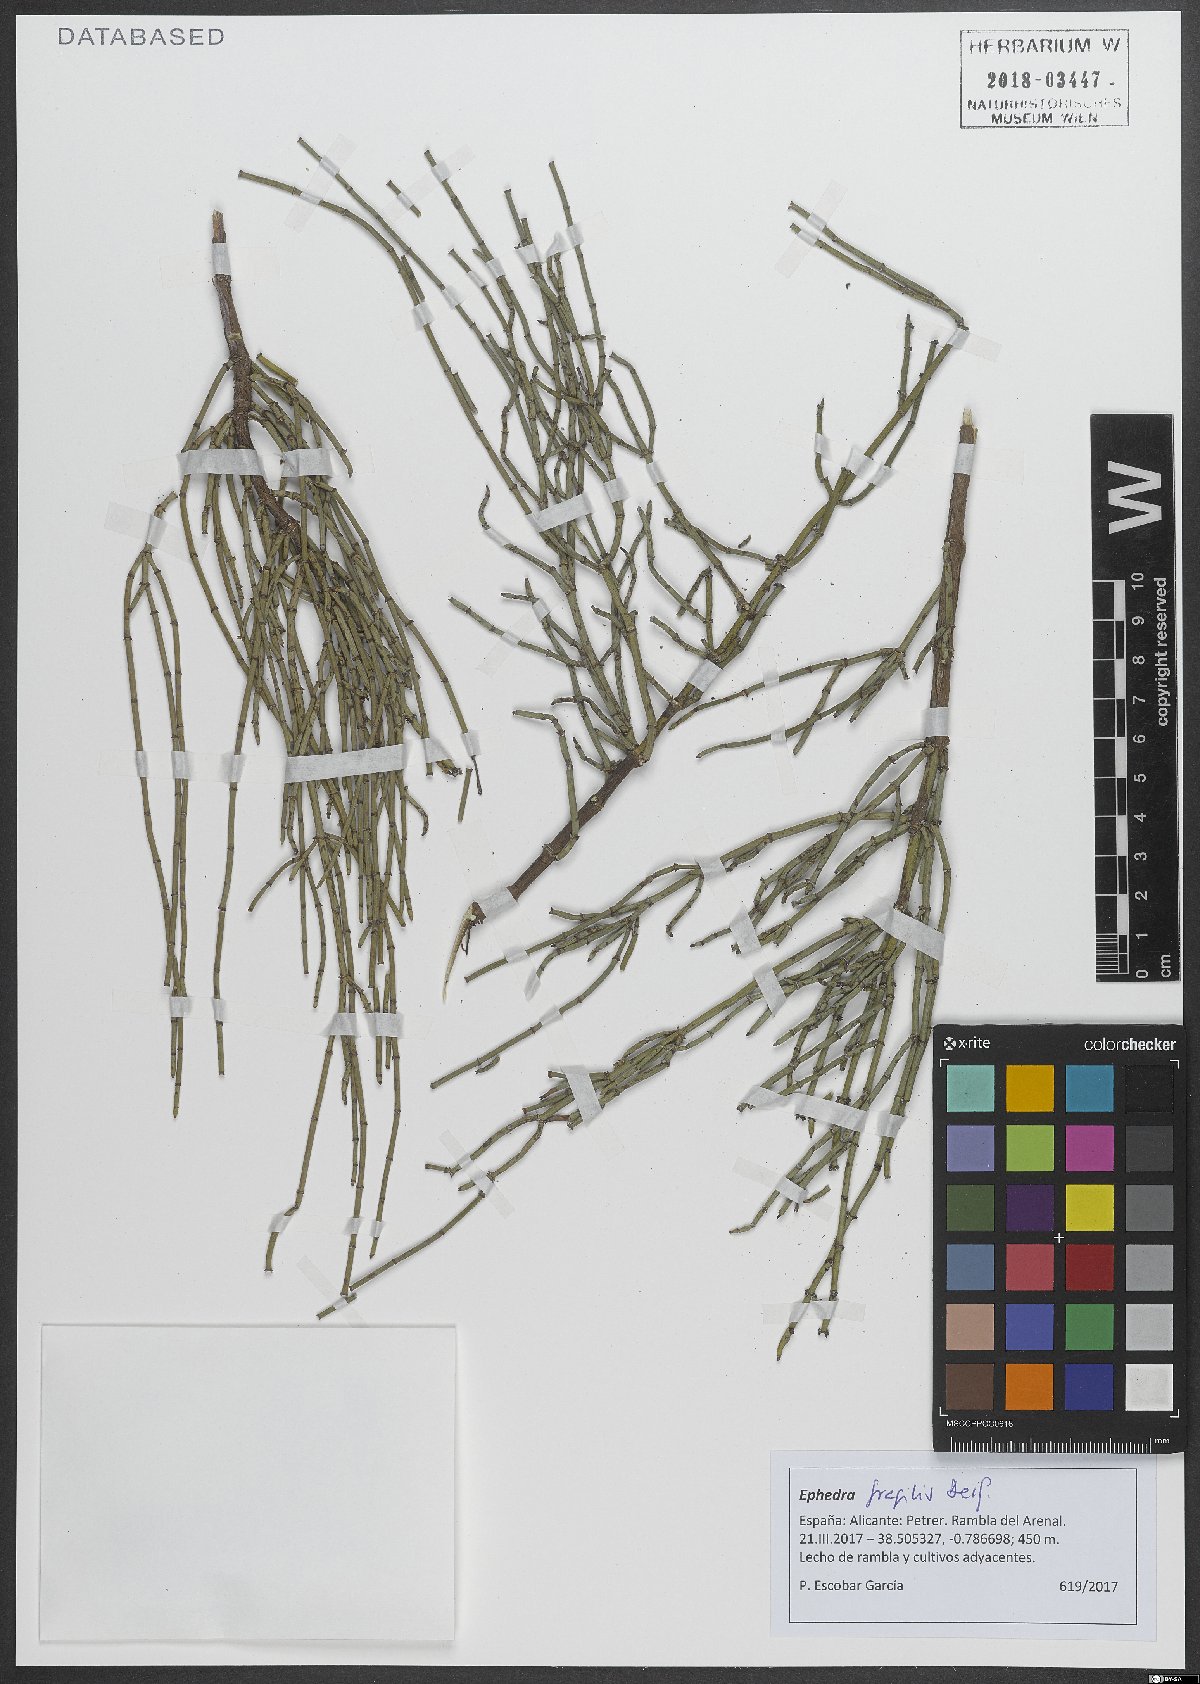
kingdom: Plantae
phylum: Tracheophyta
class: Gnetopsida
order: Ephedrales
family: Ephedraceae
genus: Ephedra
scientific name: Ephedra fragilis
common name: Joint pine
